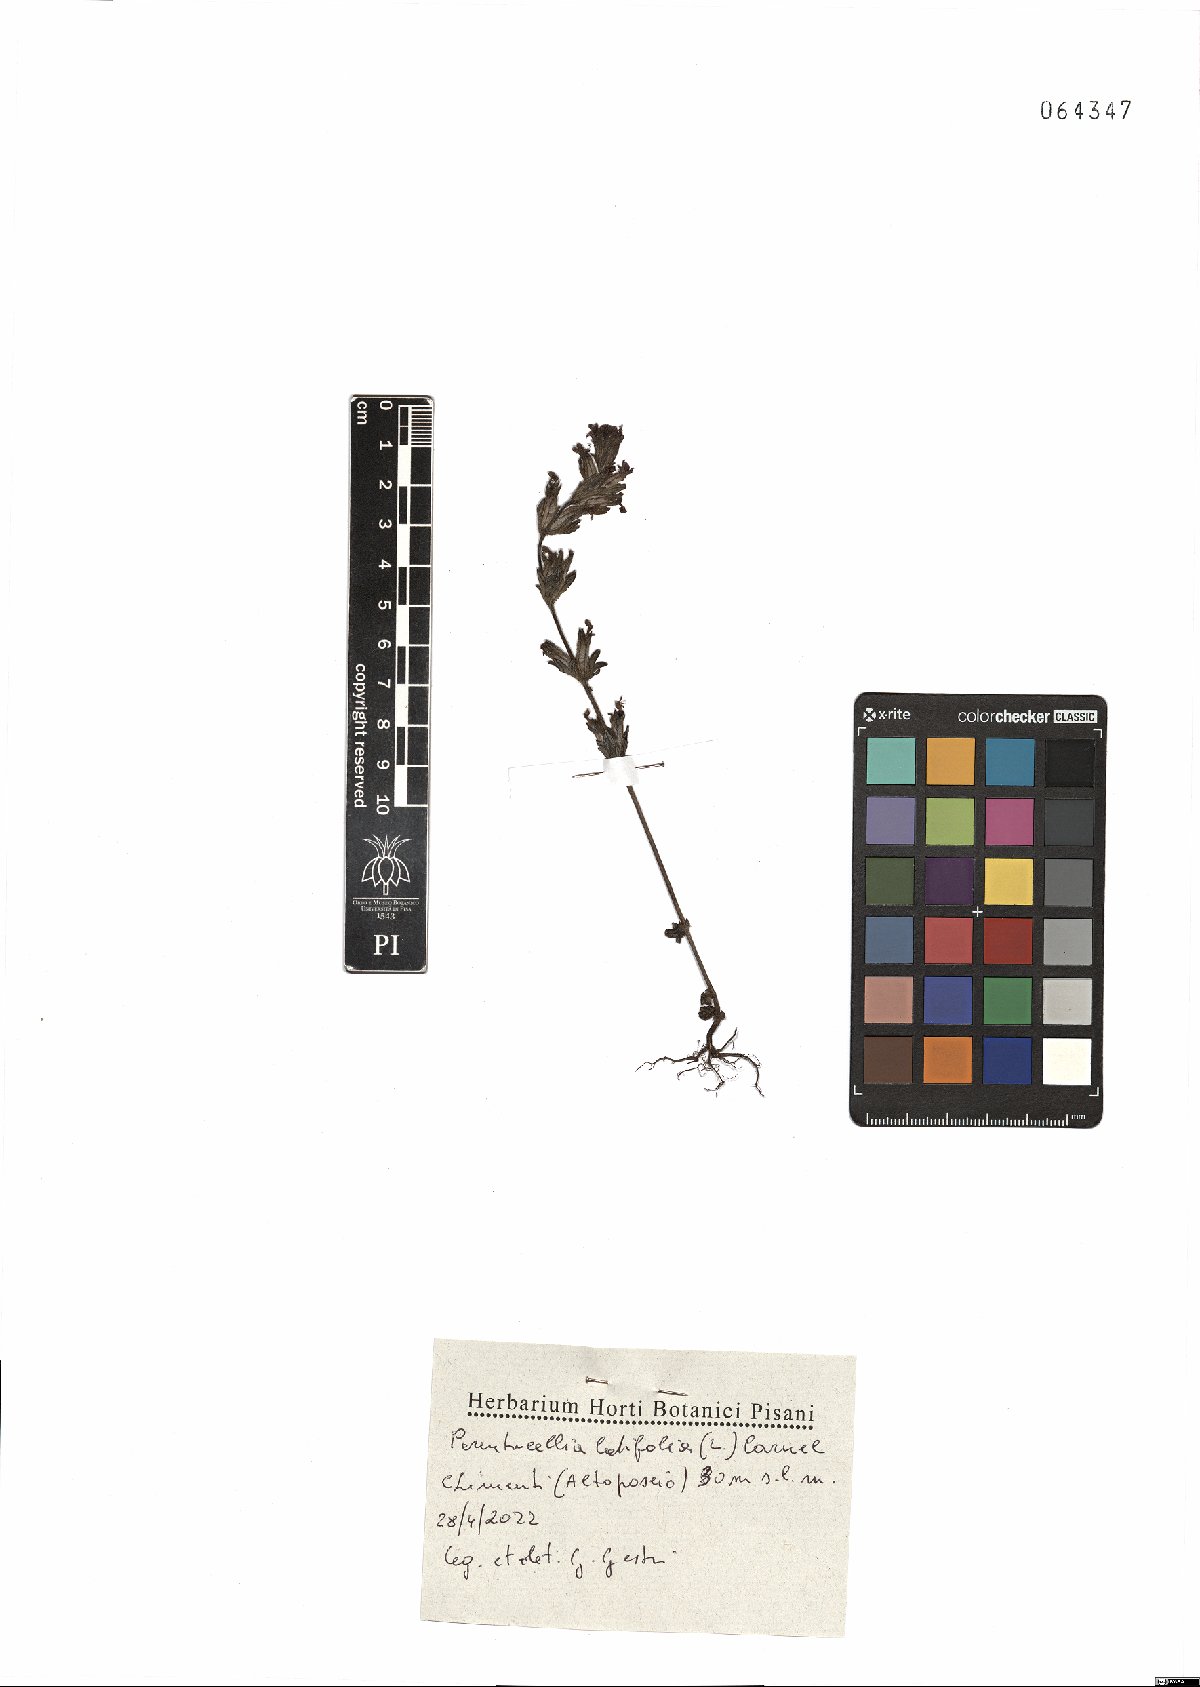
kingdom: Plantae
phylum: Tracheophyta
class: Magnoliopsida
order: Lamiales
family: Orobanchaceae
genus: Parentucellia
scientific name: Parentucellia latifolia
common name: Broadleaf glandweed
